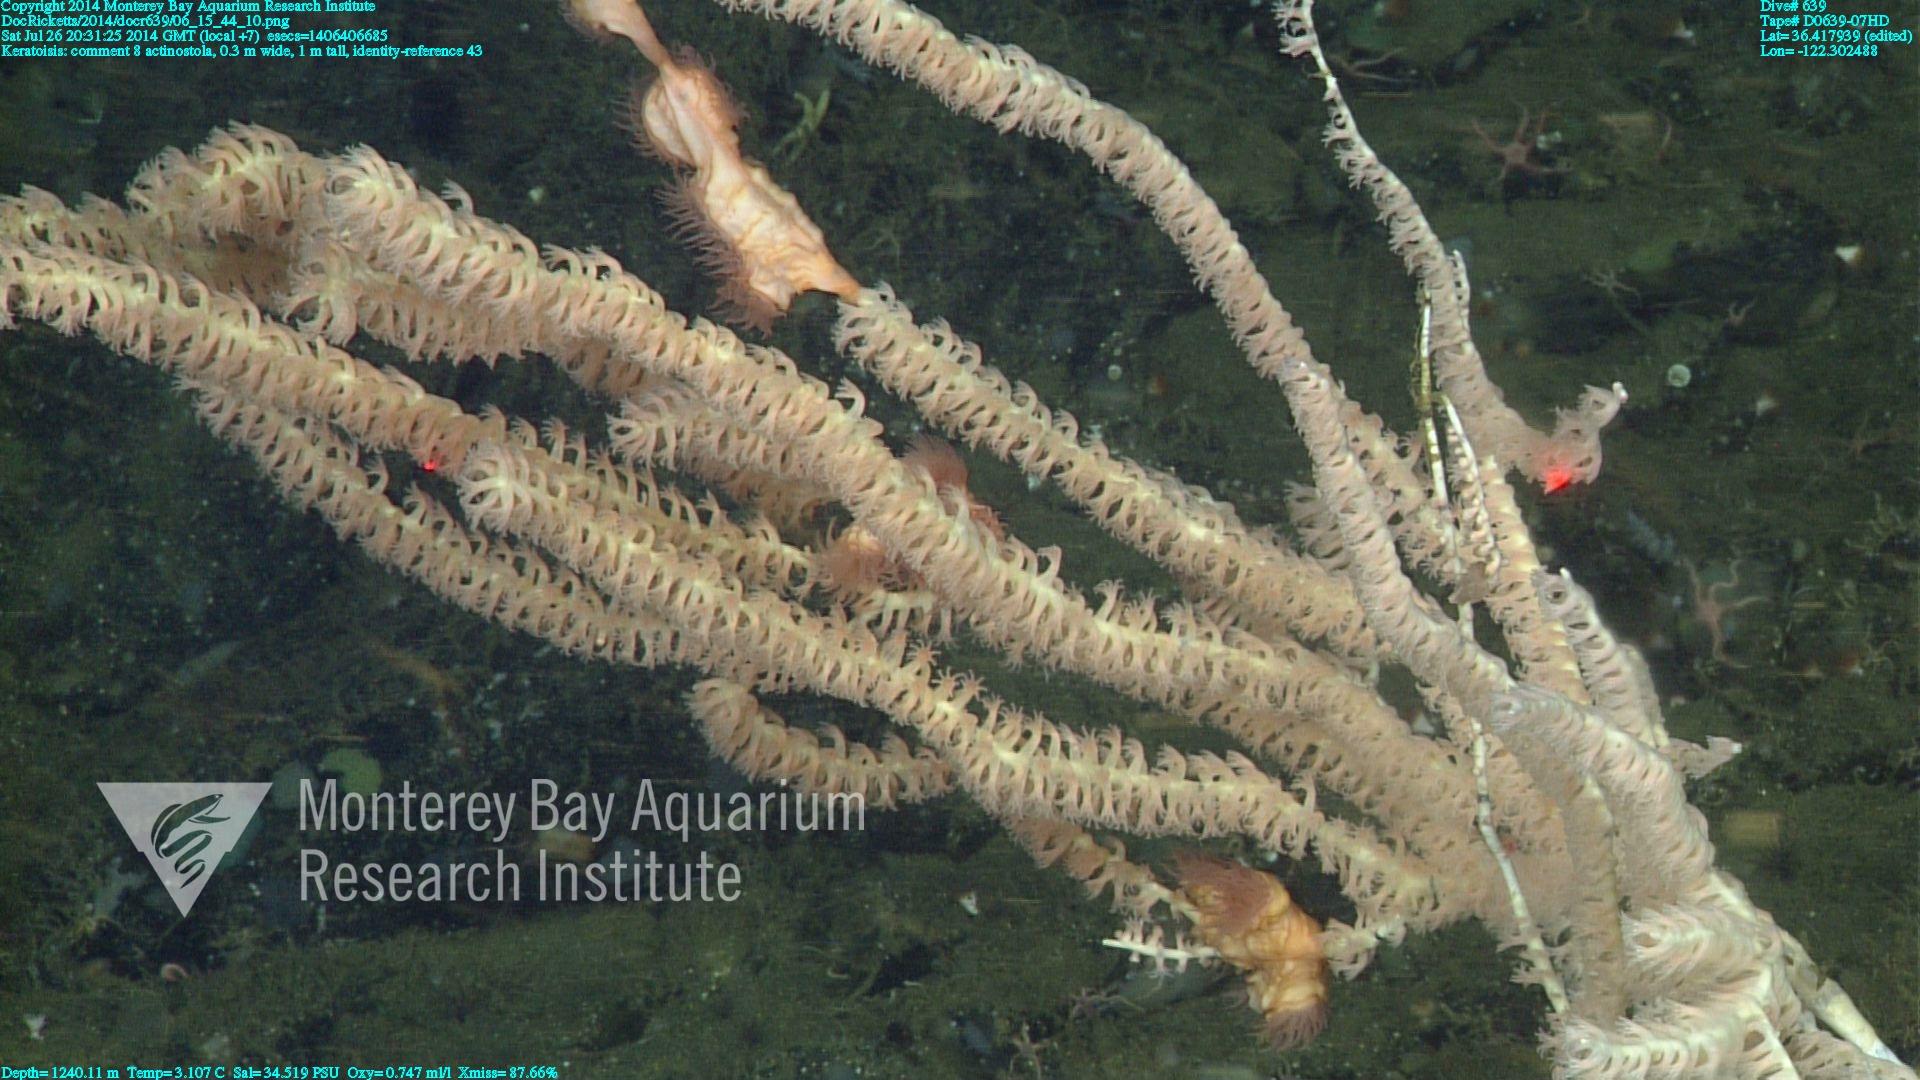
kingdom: Animalia
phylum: Cnidaria
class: Anthozoa
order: Scleralcyonacea
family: Keratoisididae
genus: Keratoisis
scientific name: Keratoisis
